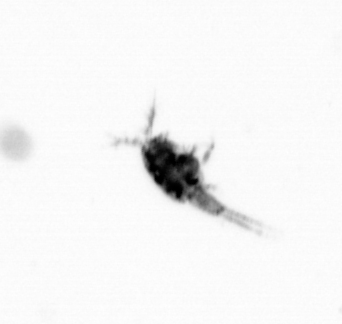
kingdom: Animalia
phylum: Arthropoda
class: Copepoda
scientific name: Copepoda
